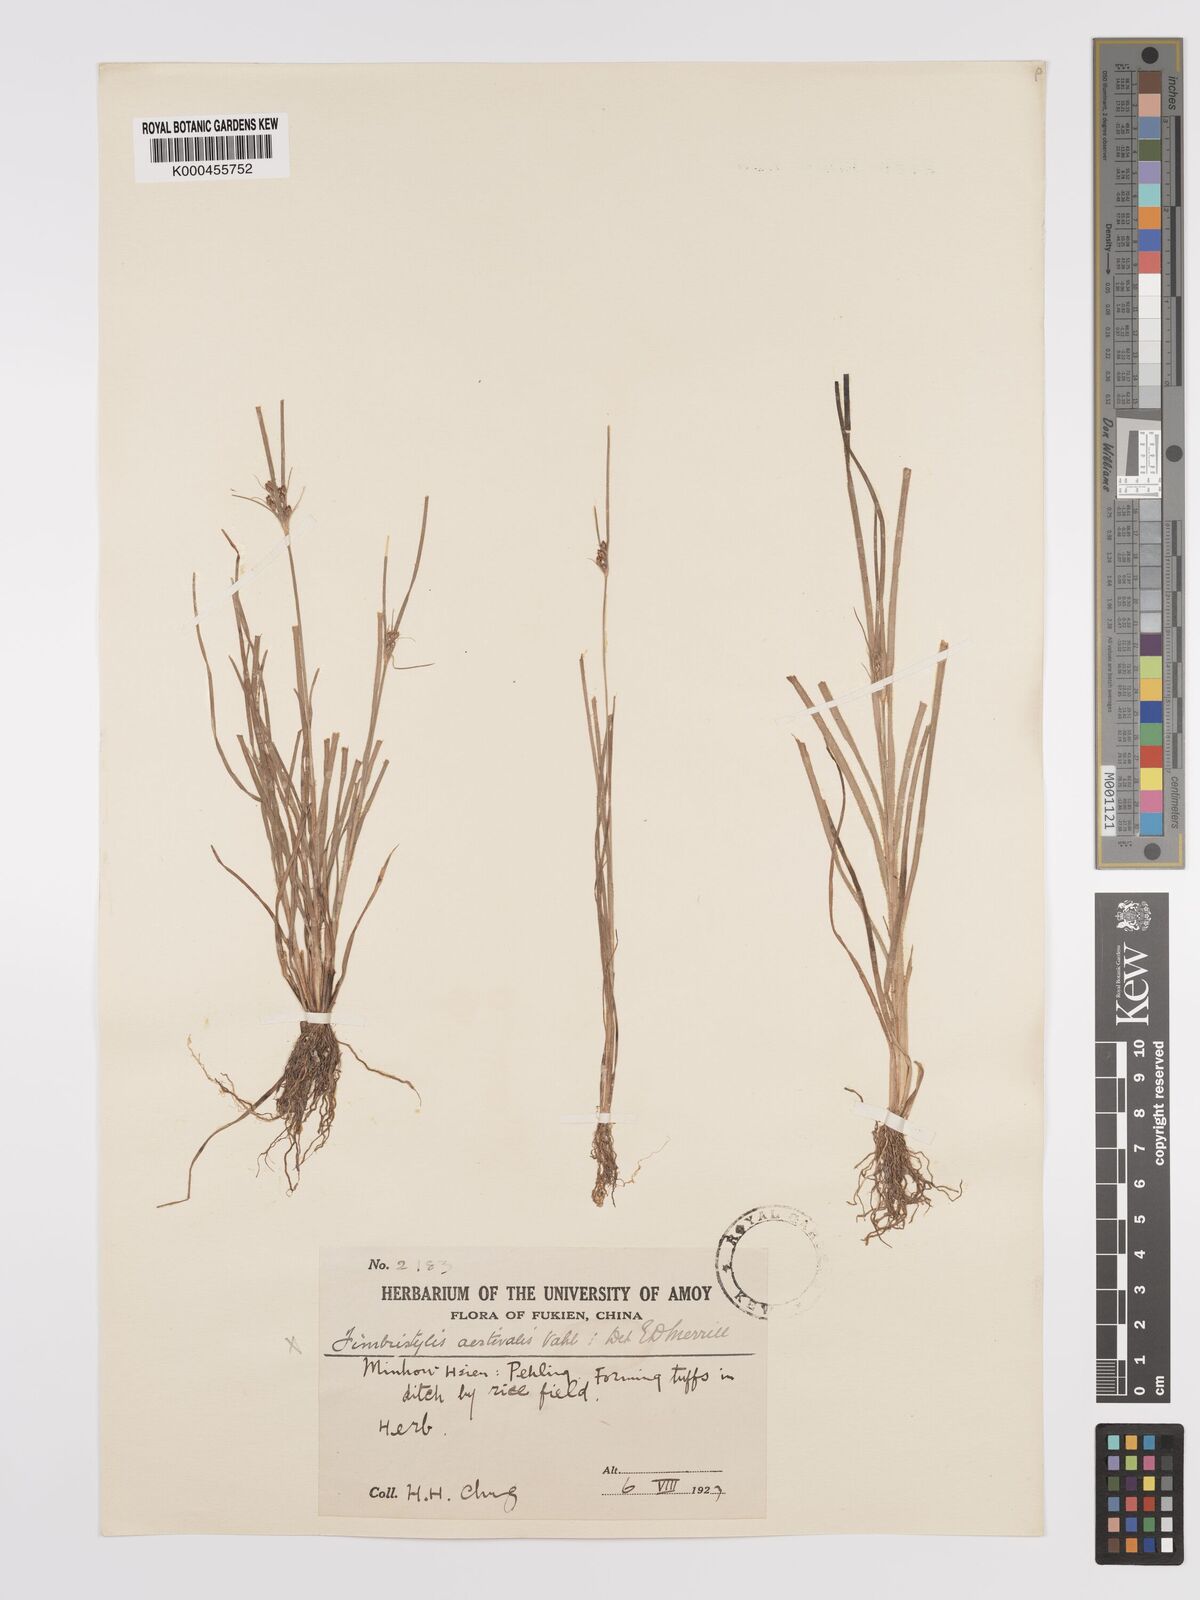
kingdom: Plantae
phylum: Tracheophyta
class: Liliopsida
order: Poales
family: Cyperaceae
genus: Fimbristylis
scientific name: Fimbristylis dichotoma
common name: Forked fimbry
